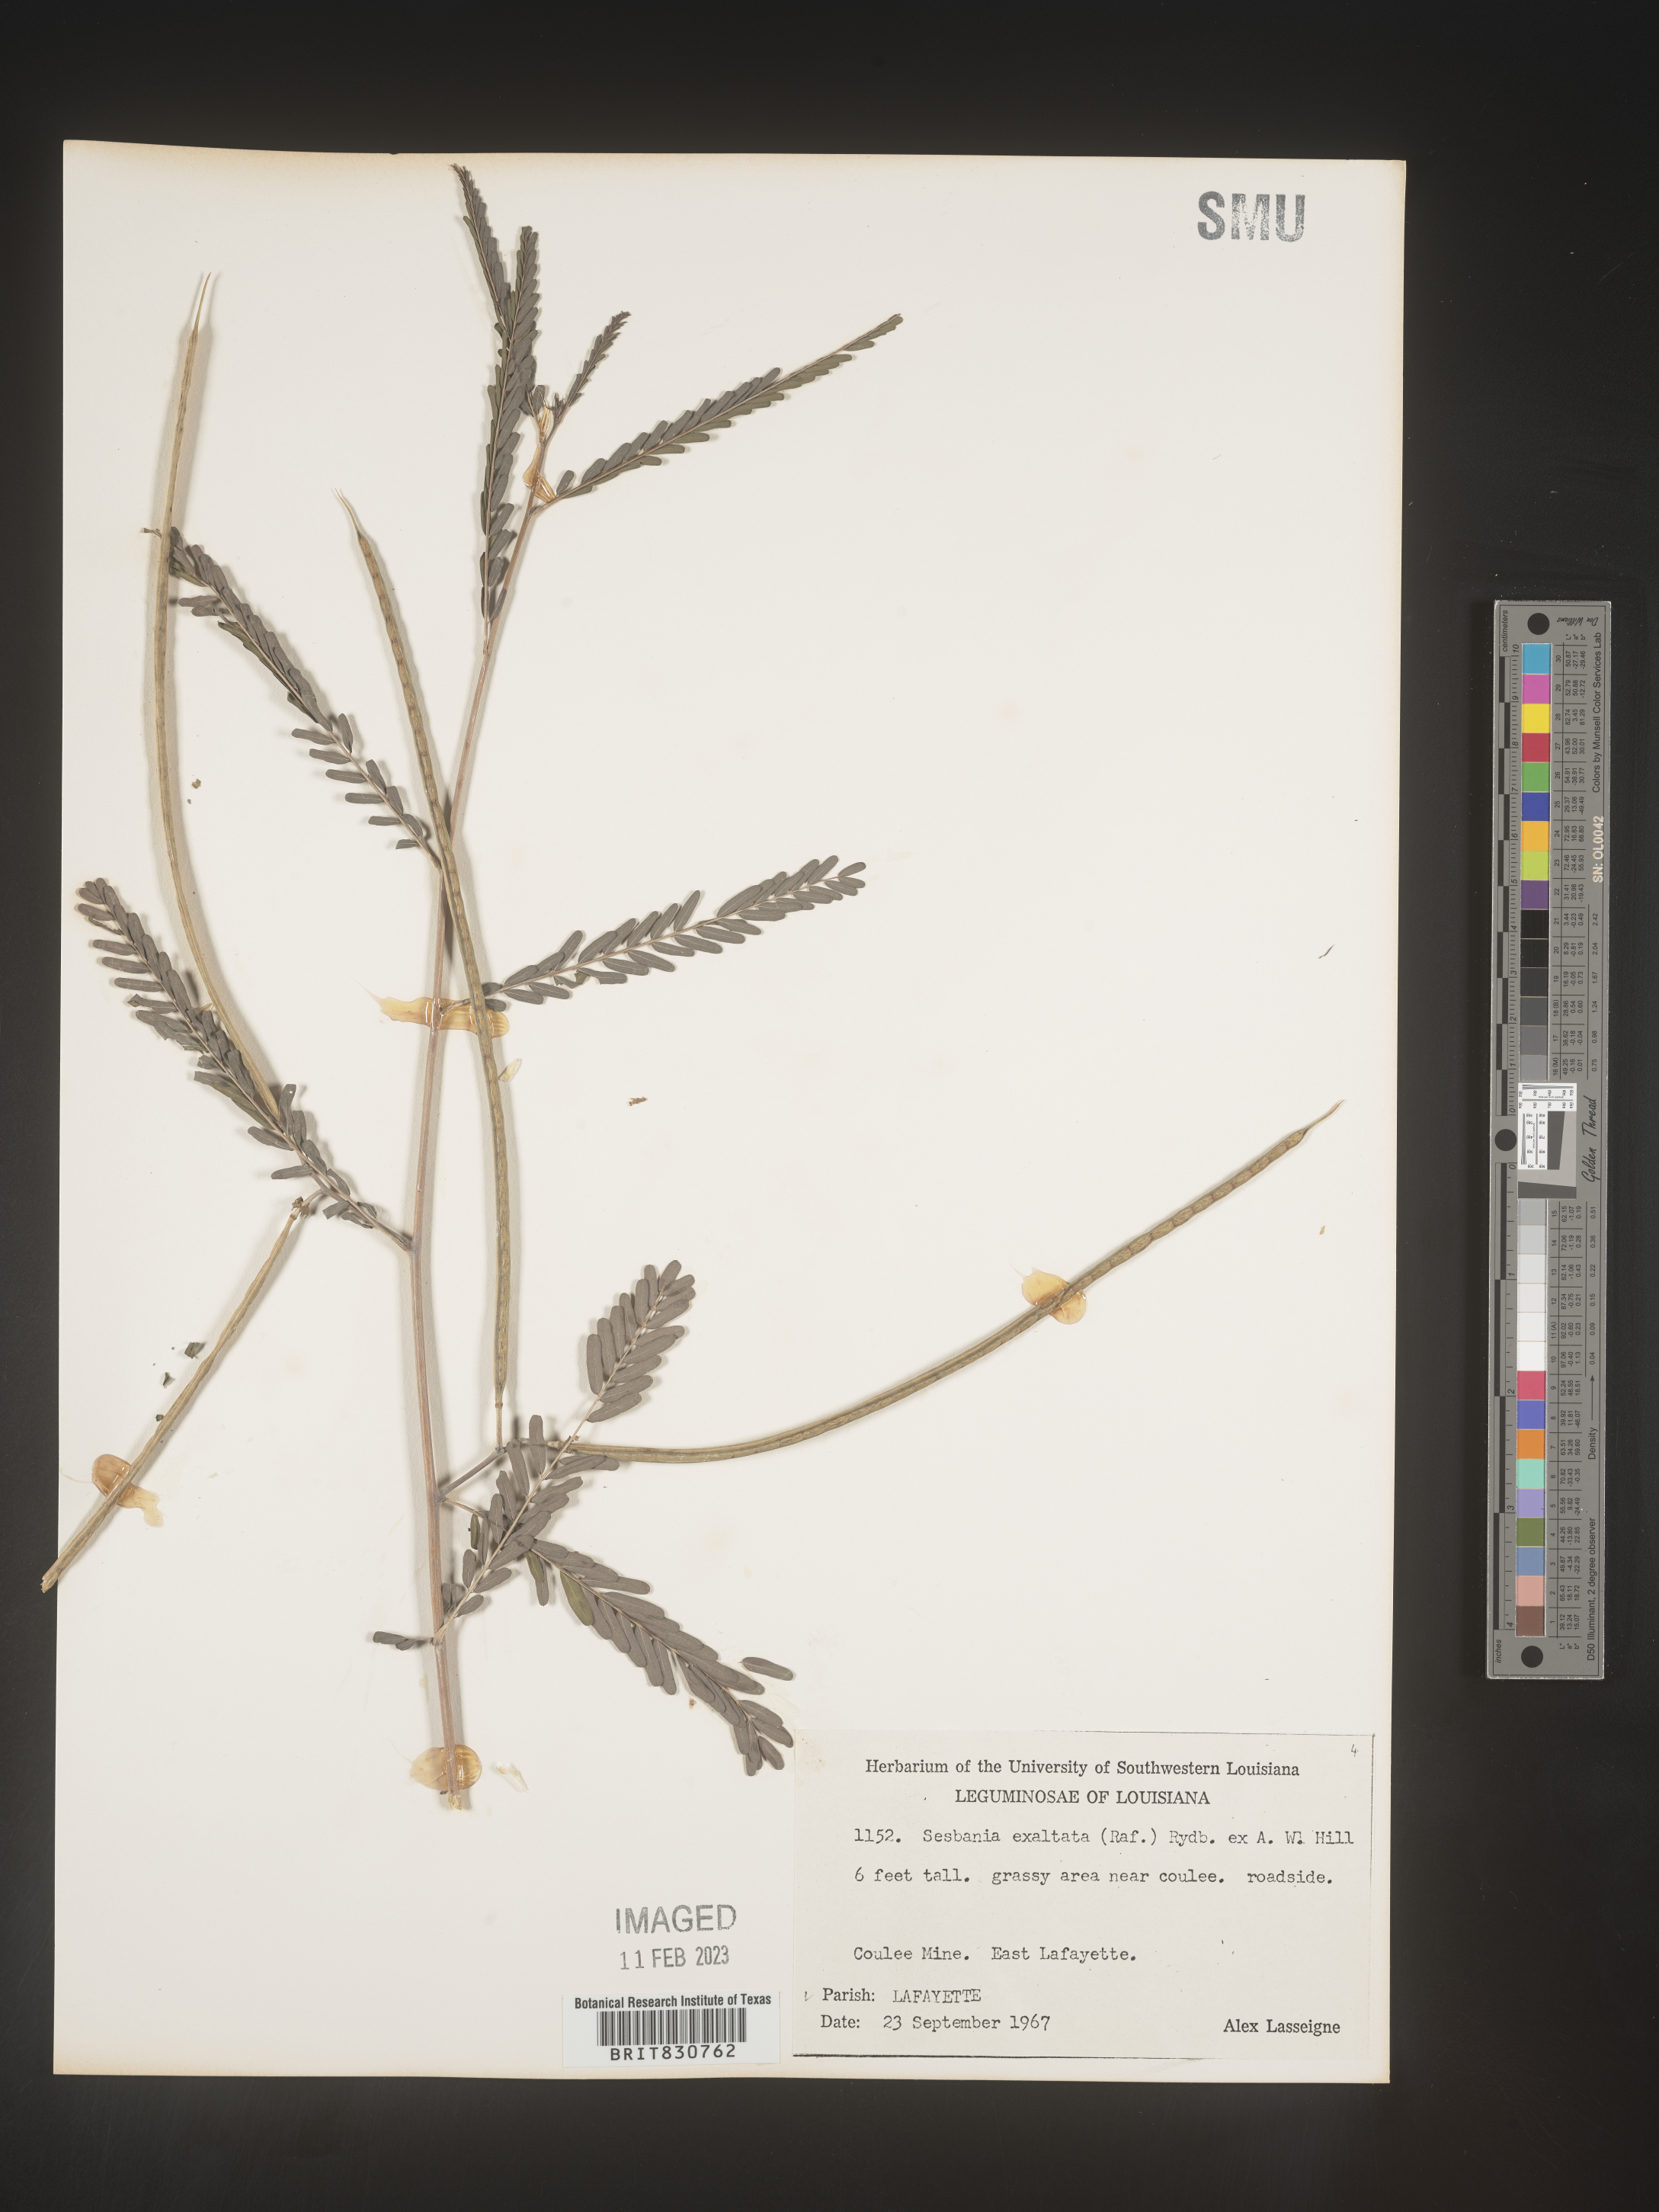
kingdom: Plantae
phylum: Tracheophyta
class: Magnoliopsida
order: Fabales
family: Fabaceae
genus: Sesbania
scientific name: Sesbania vesicaria
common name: Bagpod
